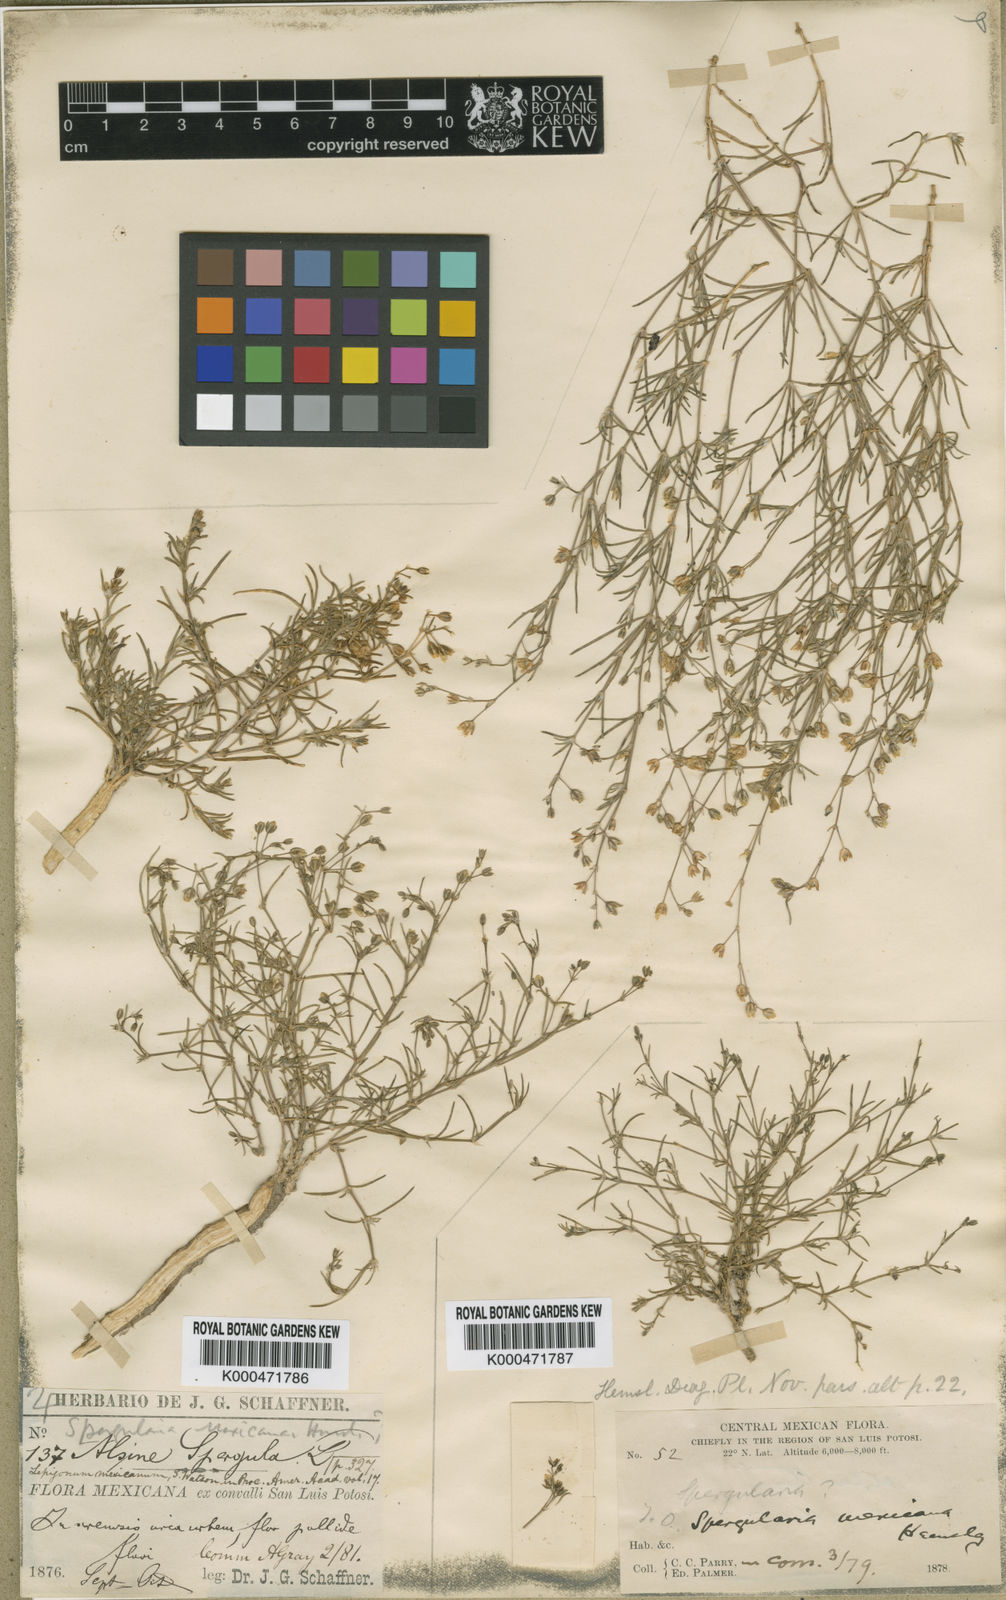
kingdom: Plantae
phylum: Tracheophyta
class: Magnoliopsida
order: Caryophyllales
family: Caryophyllaceae
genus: Spergularia
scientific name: Spergularia mexicana
